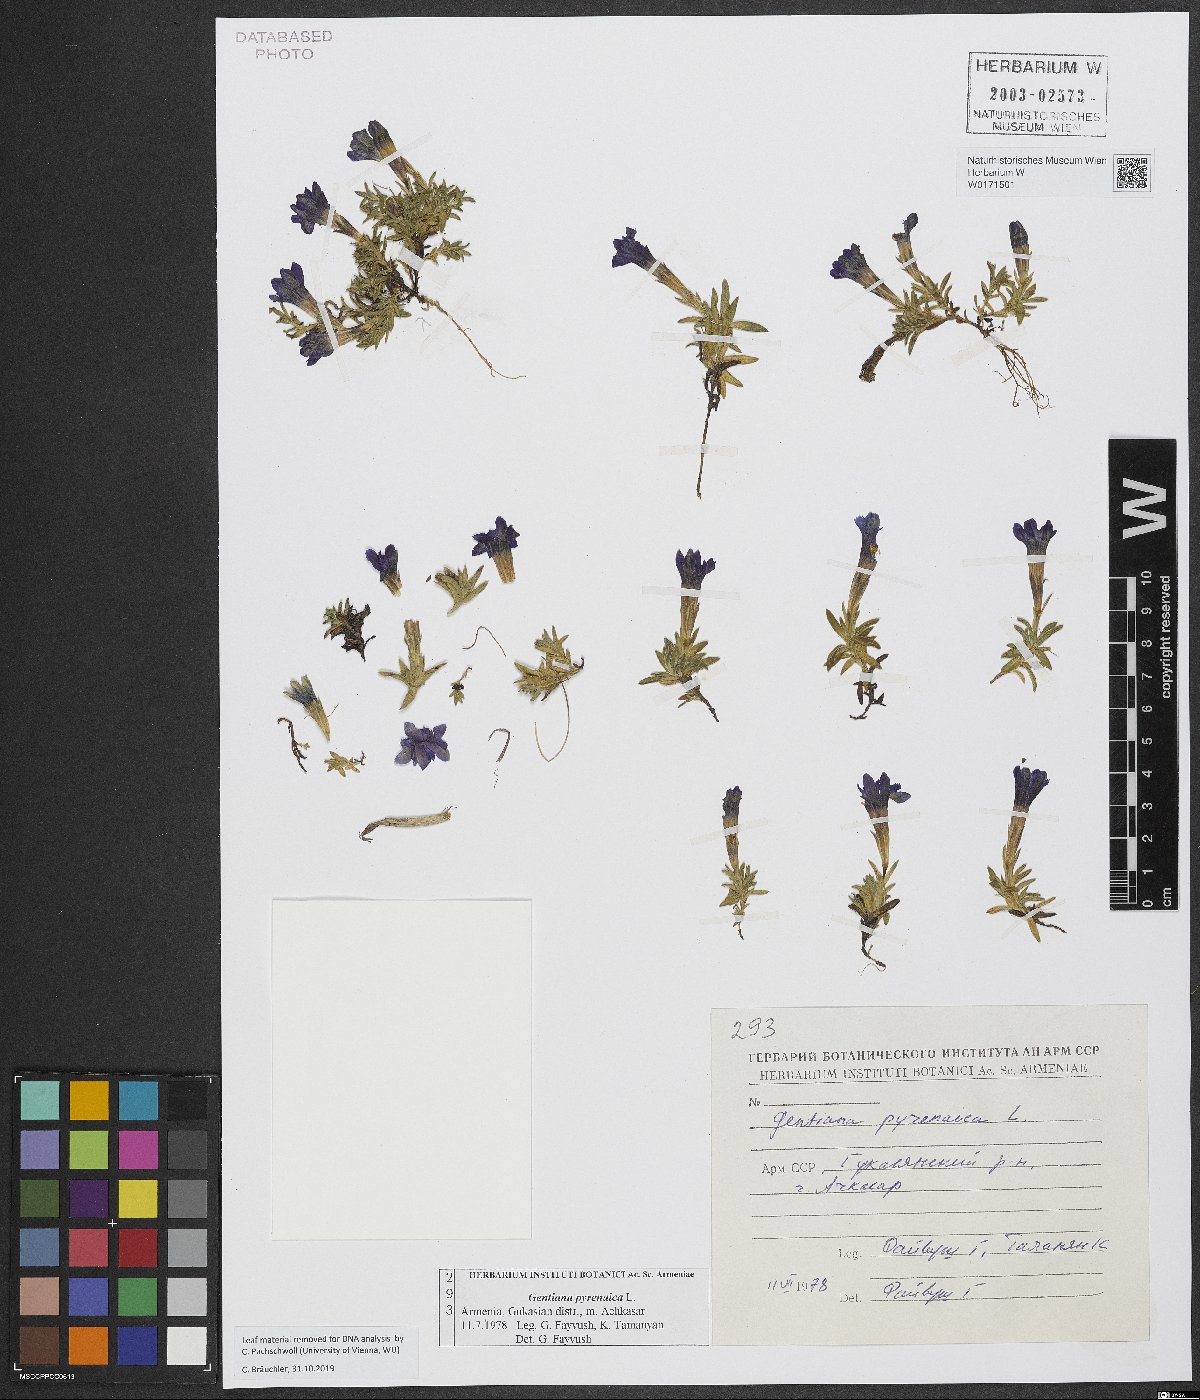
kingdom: Plantae
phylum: Tracheophyta
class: Magnoliopsida
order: Gentianales
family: Gentianaceae
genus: Gentiana
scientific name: Gentiana pyrenaica
